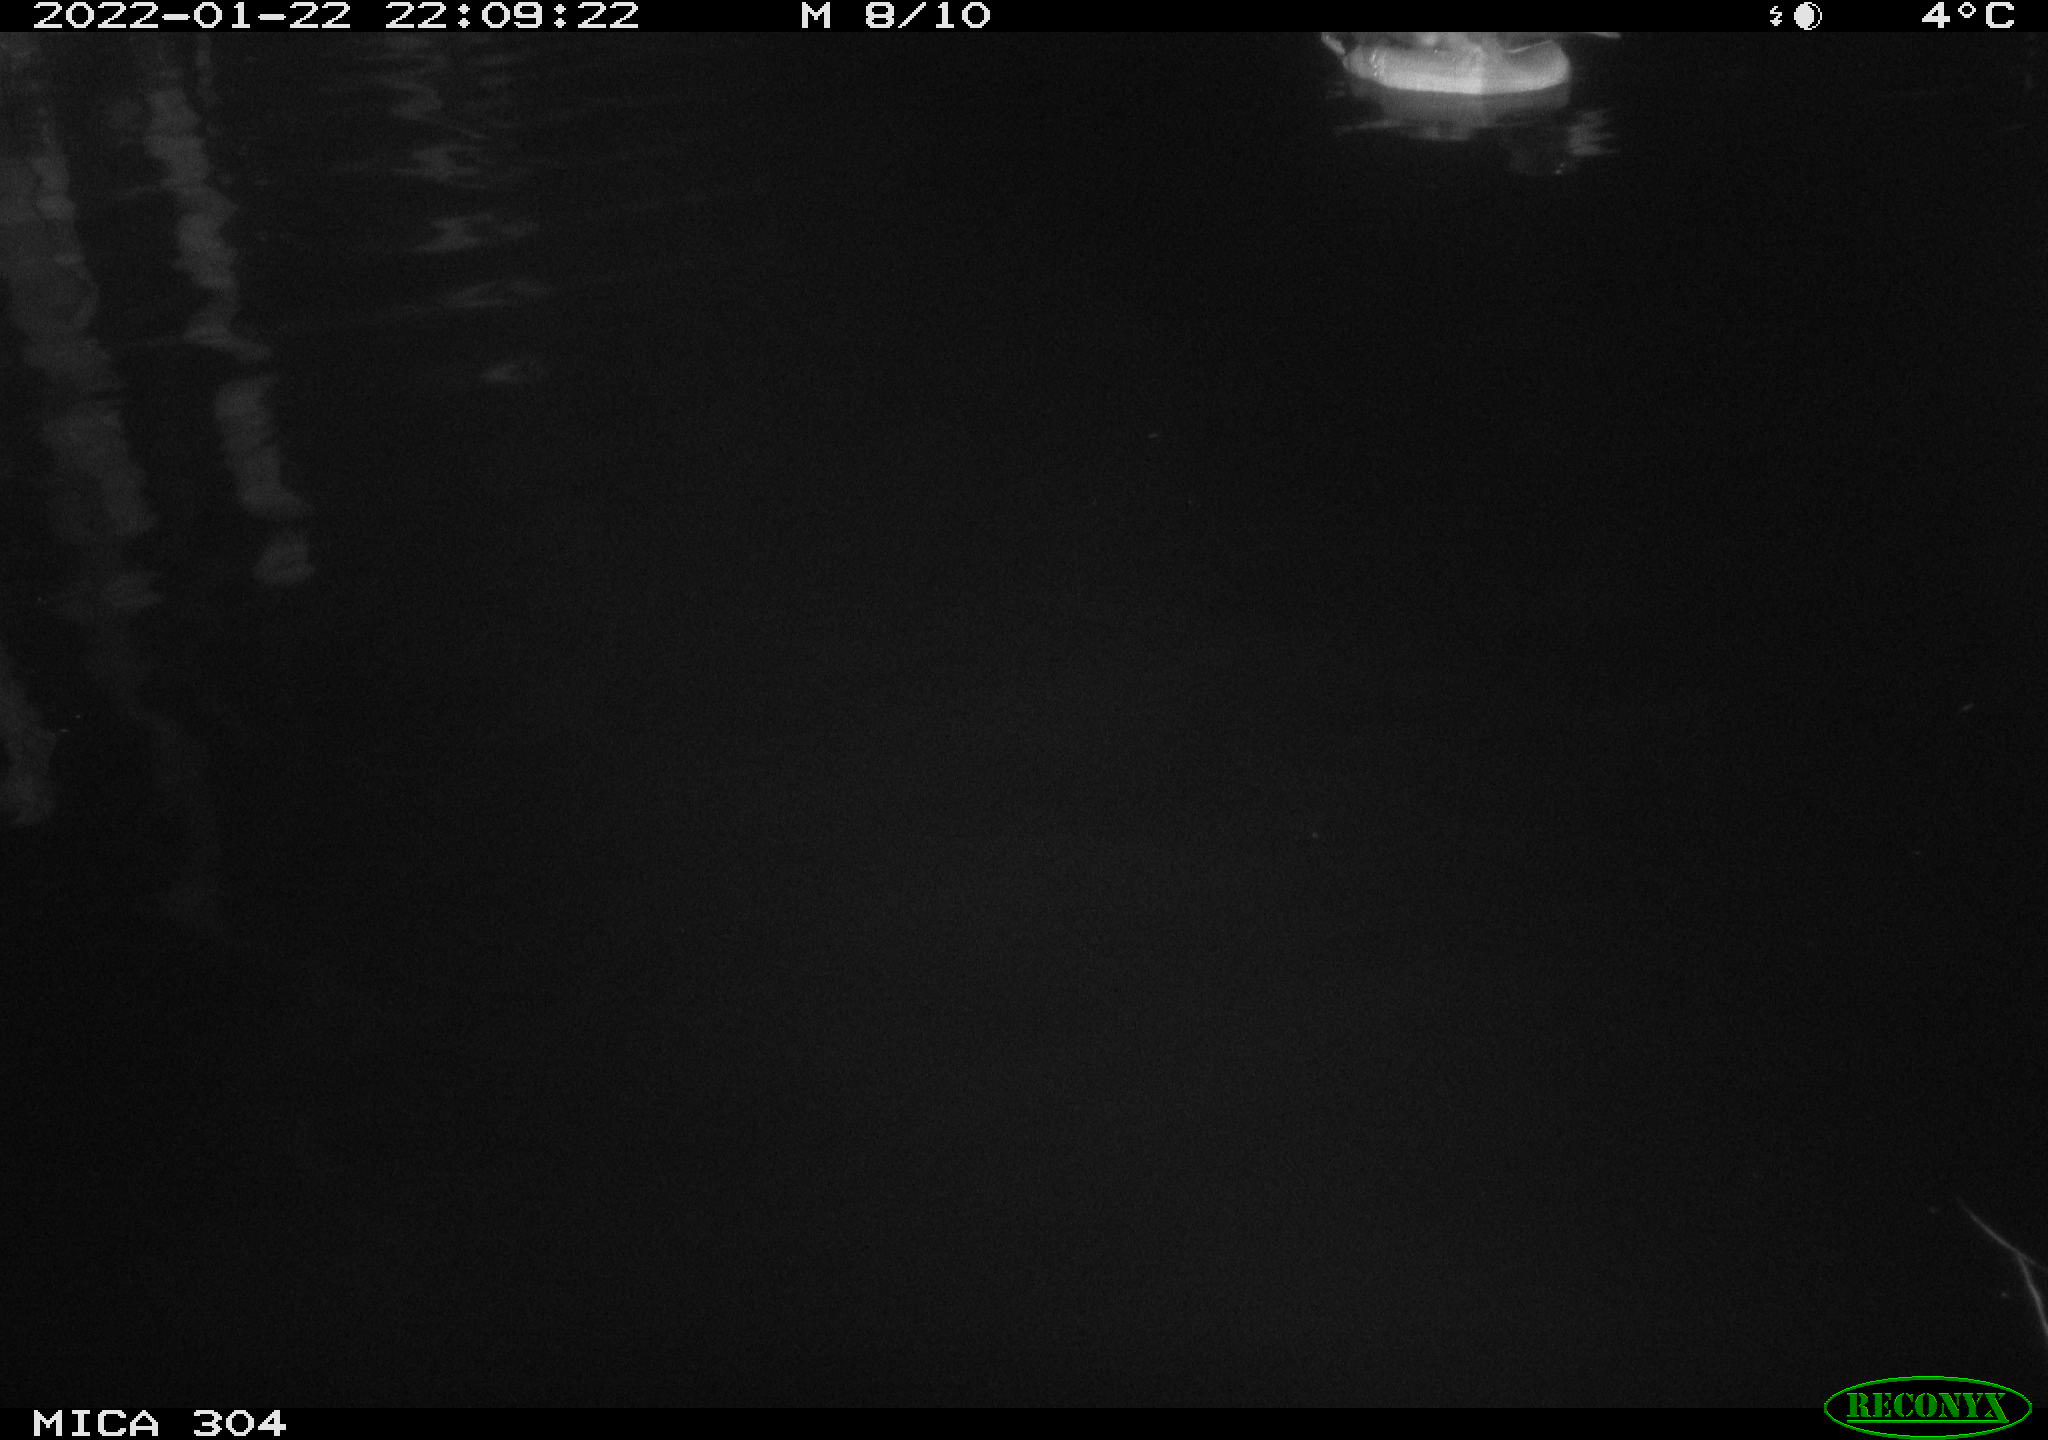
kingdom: Animalia
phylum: Chordata
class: Aves
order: Anseriformes
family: Anatidae
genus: Anas
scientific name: Anas
